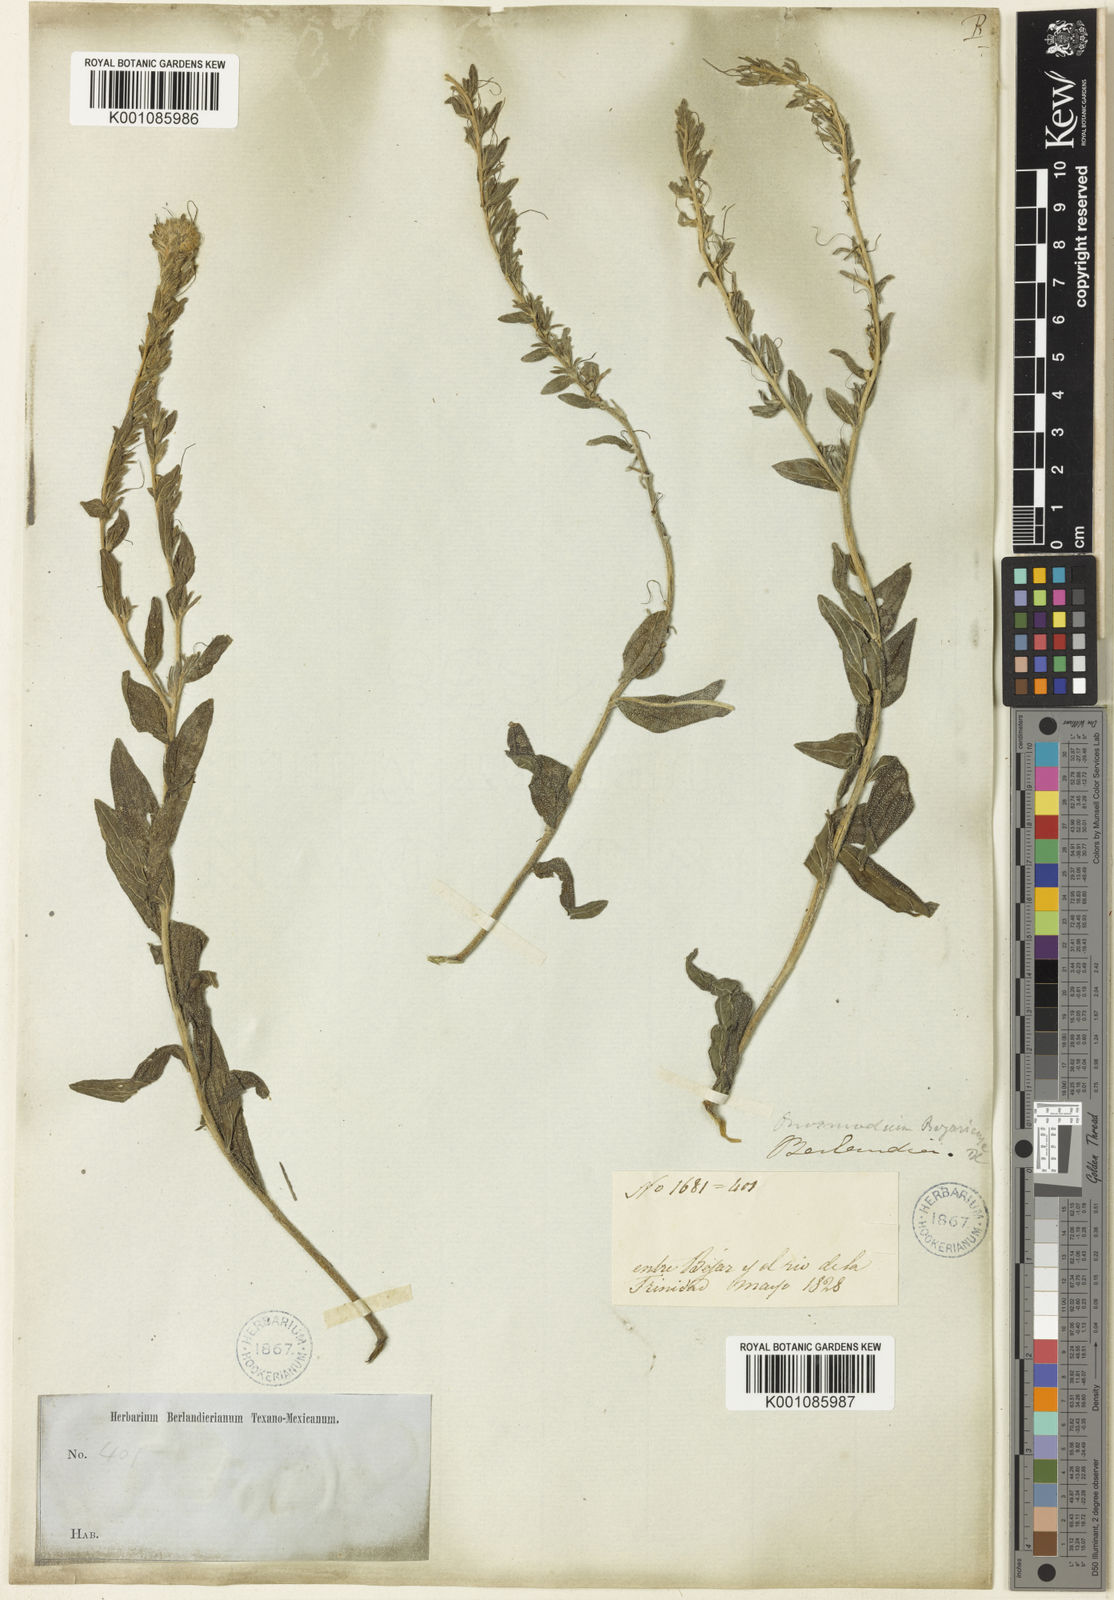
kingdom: Plantae
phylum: Tracheophyta
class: Magnoliopsida
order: Boraginales
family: Boraginaceae
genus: Lithospermum
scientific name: Lithospermum molle
